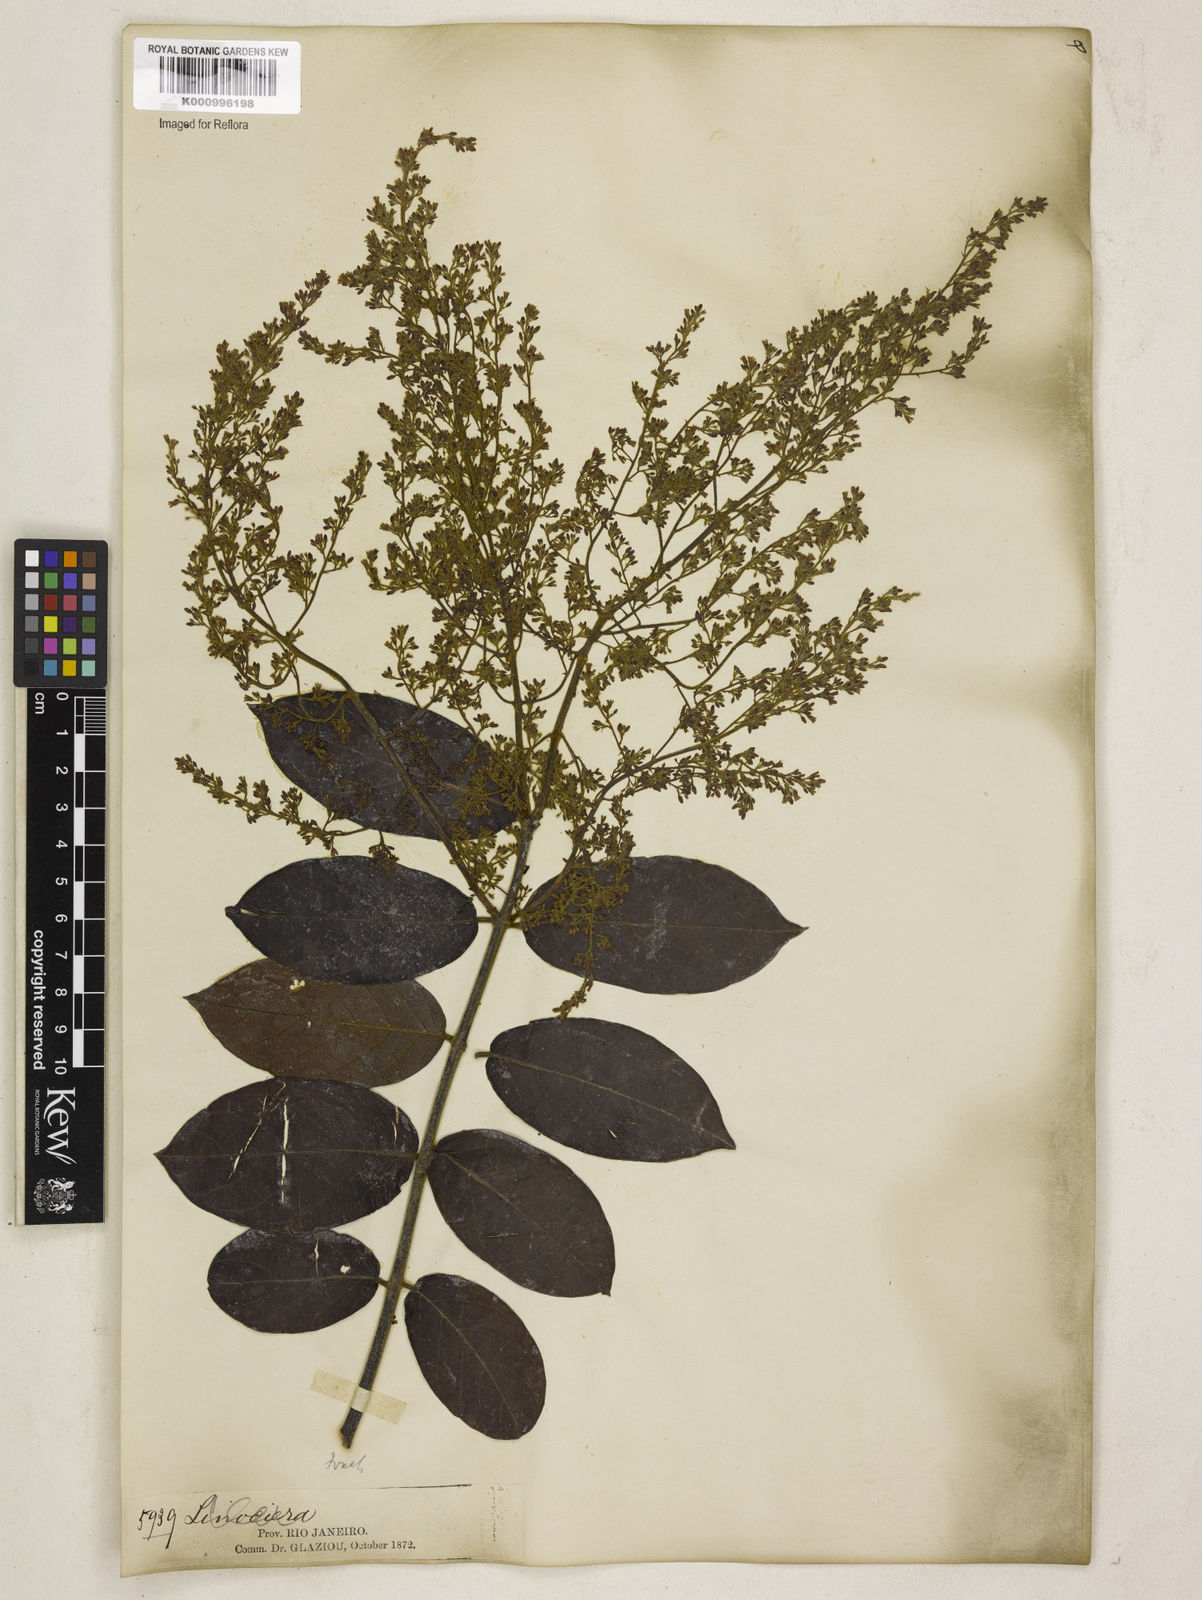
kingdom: Plantae
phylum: Tracheophyta
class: Magnoliopsida
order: Gentianales
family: Apocynaceae
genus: Forsteronia
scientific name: Forsteronia
